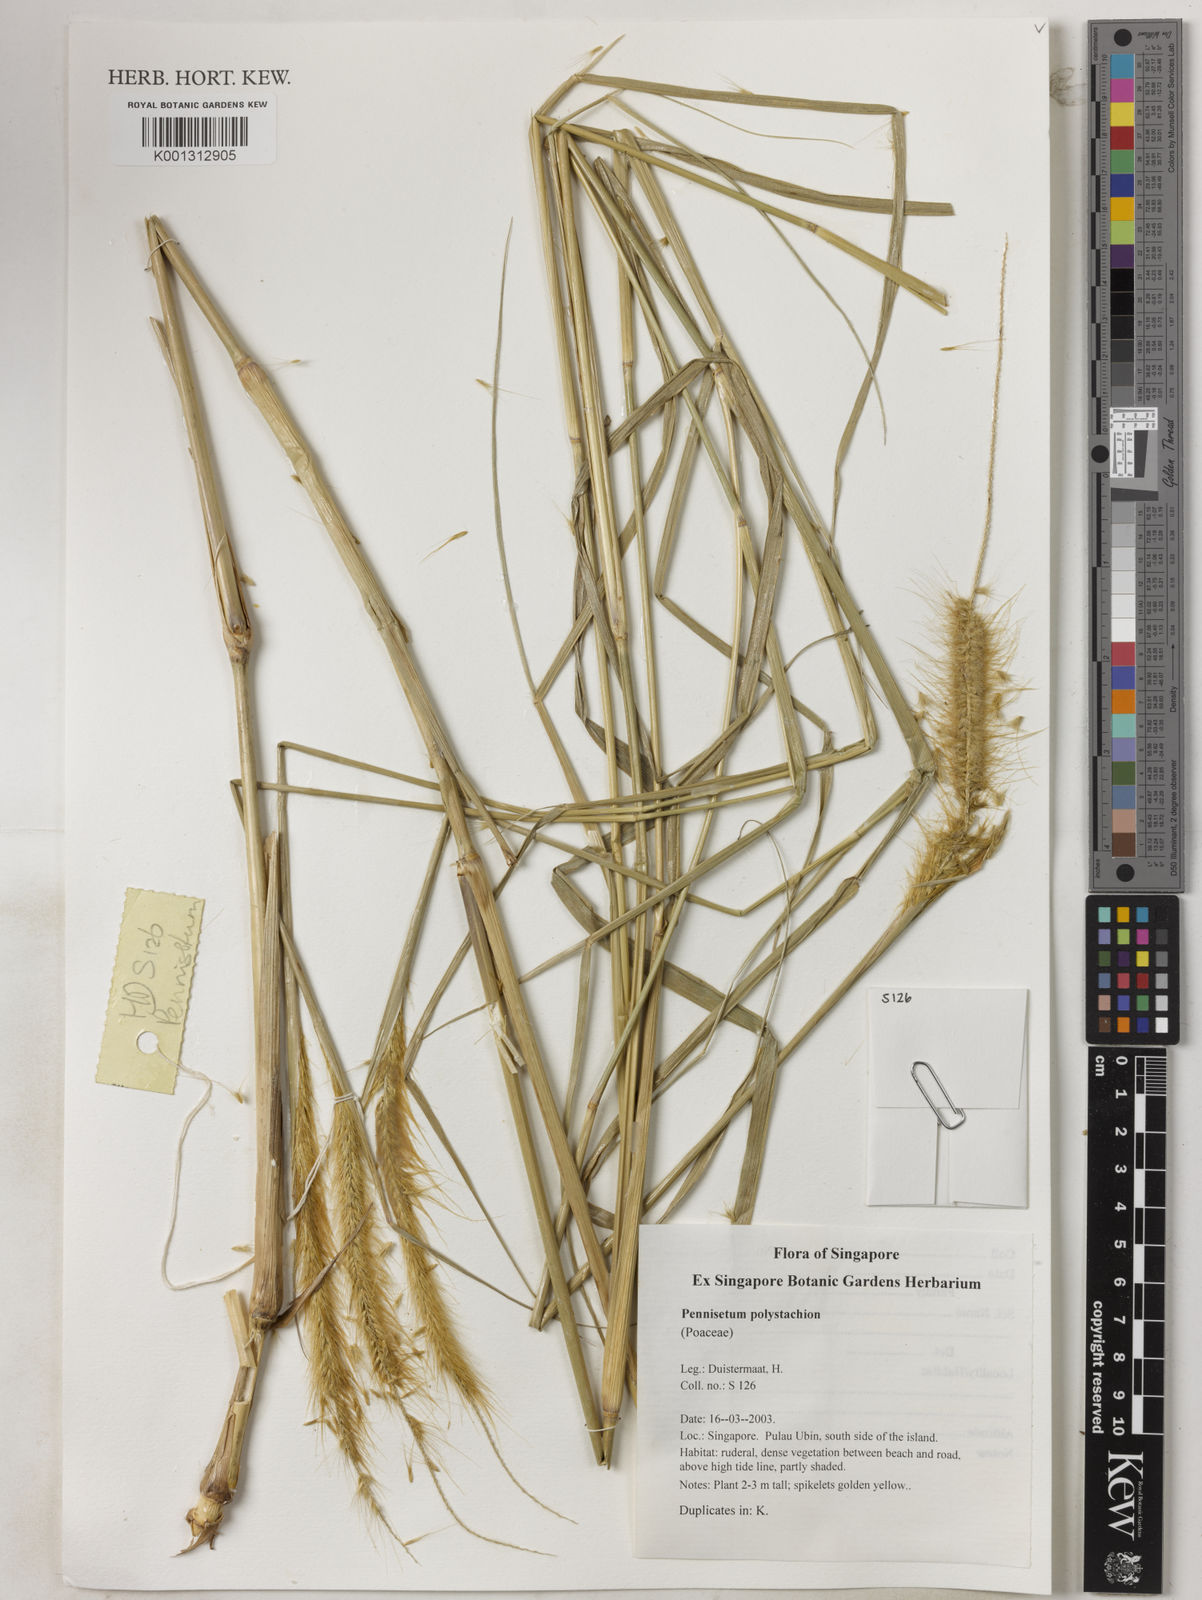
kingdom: Plantae
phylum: Tracheophyta
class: Liliopsida
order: Poales
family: Poaceae
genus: Setaria
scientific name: Setaria parviflora
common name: Knotroot bristle-grass
